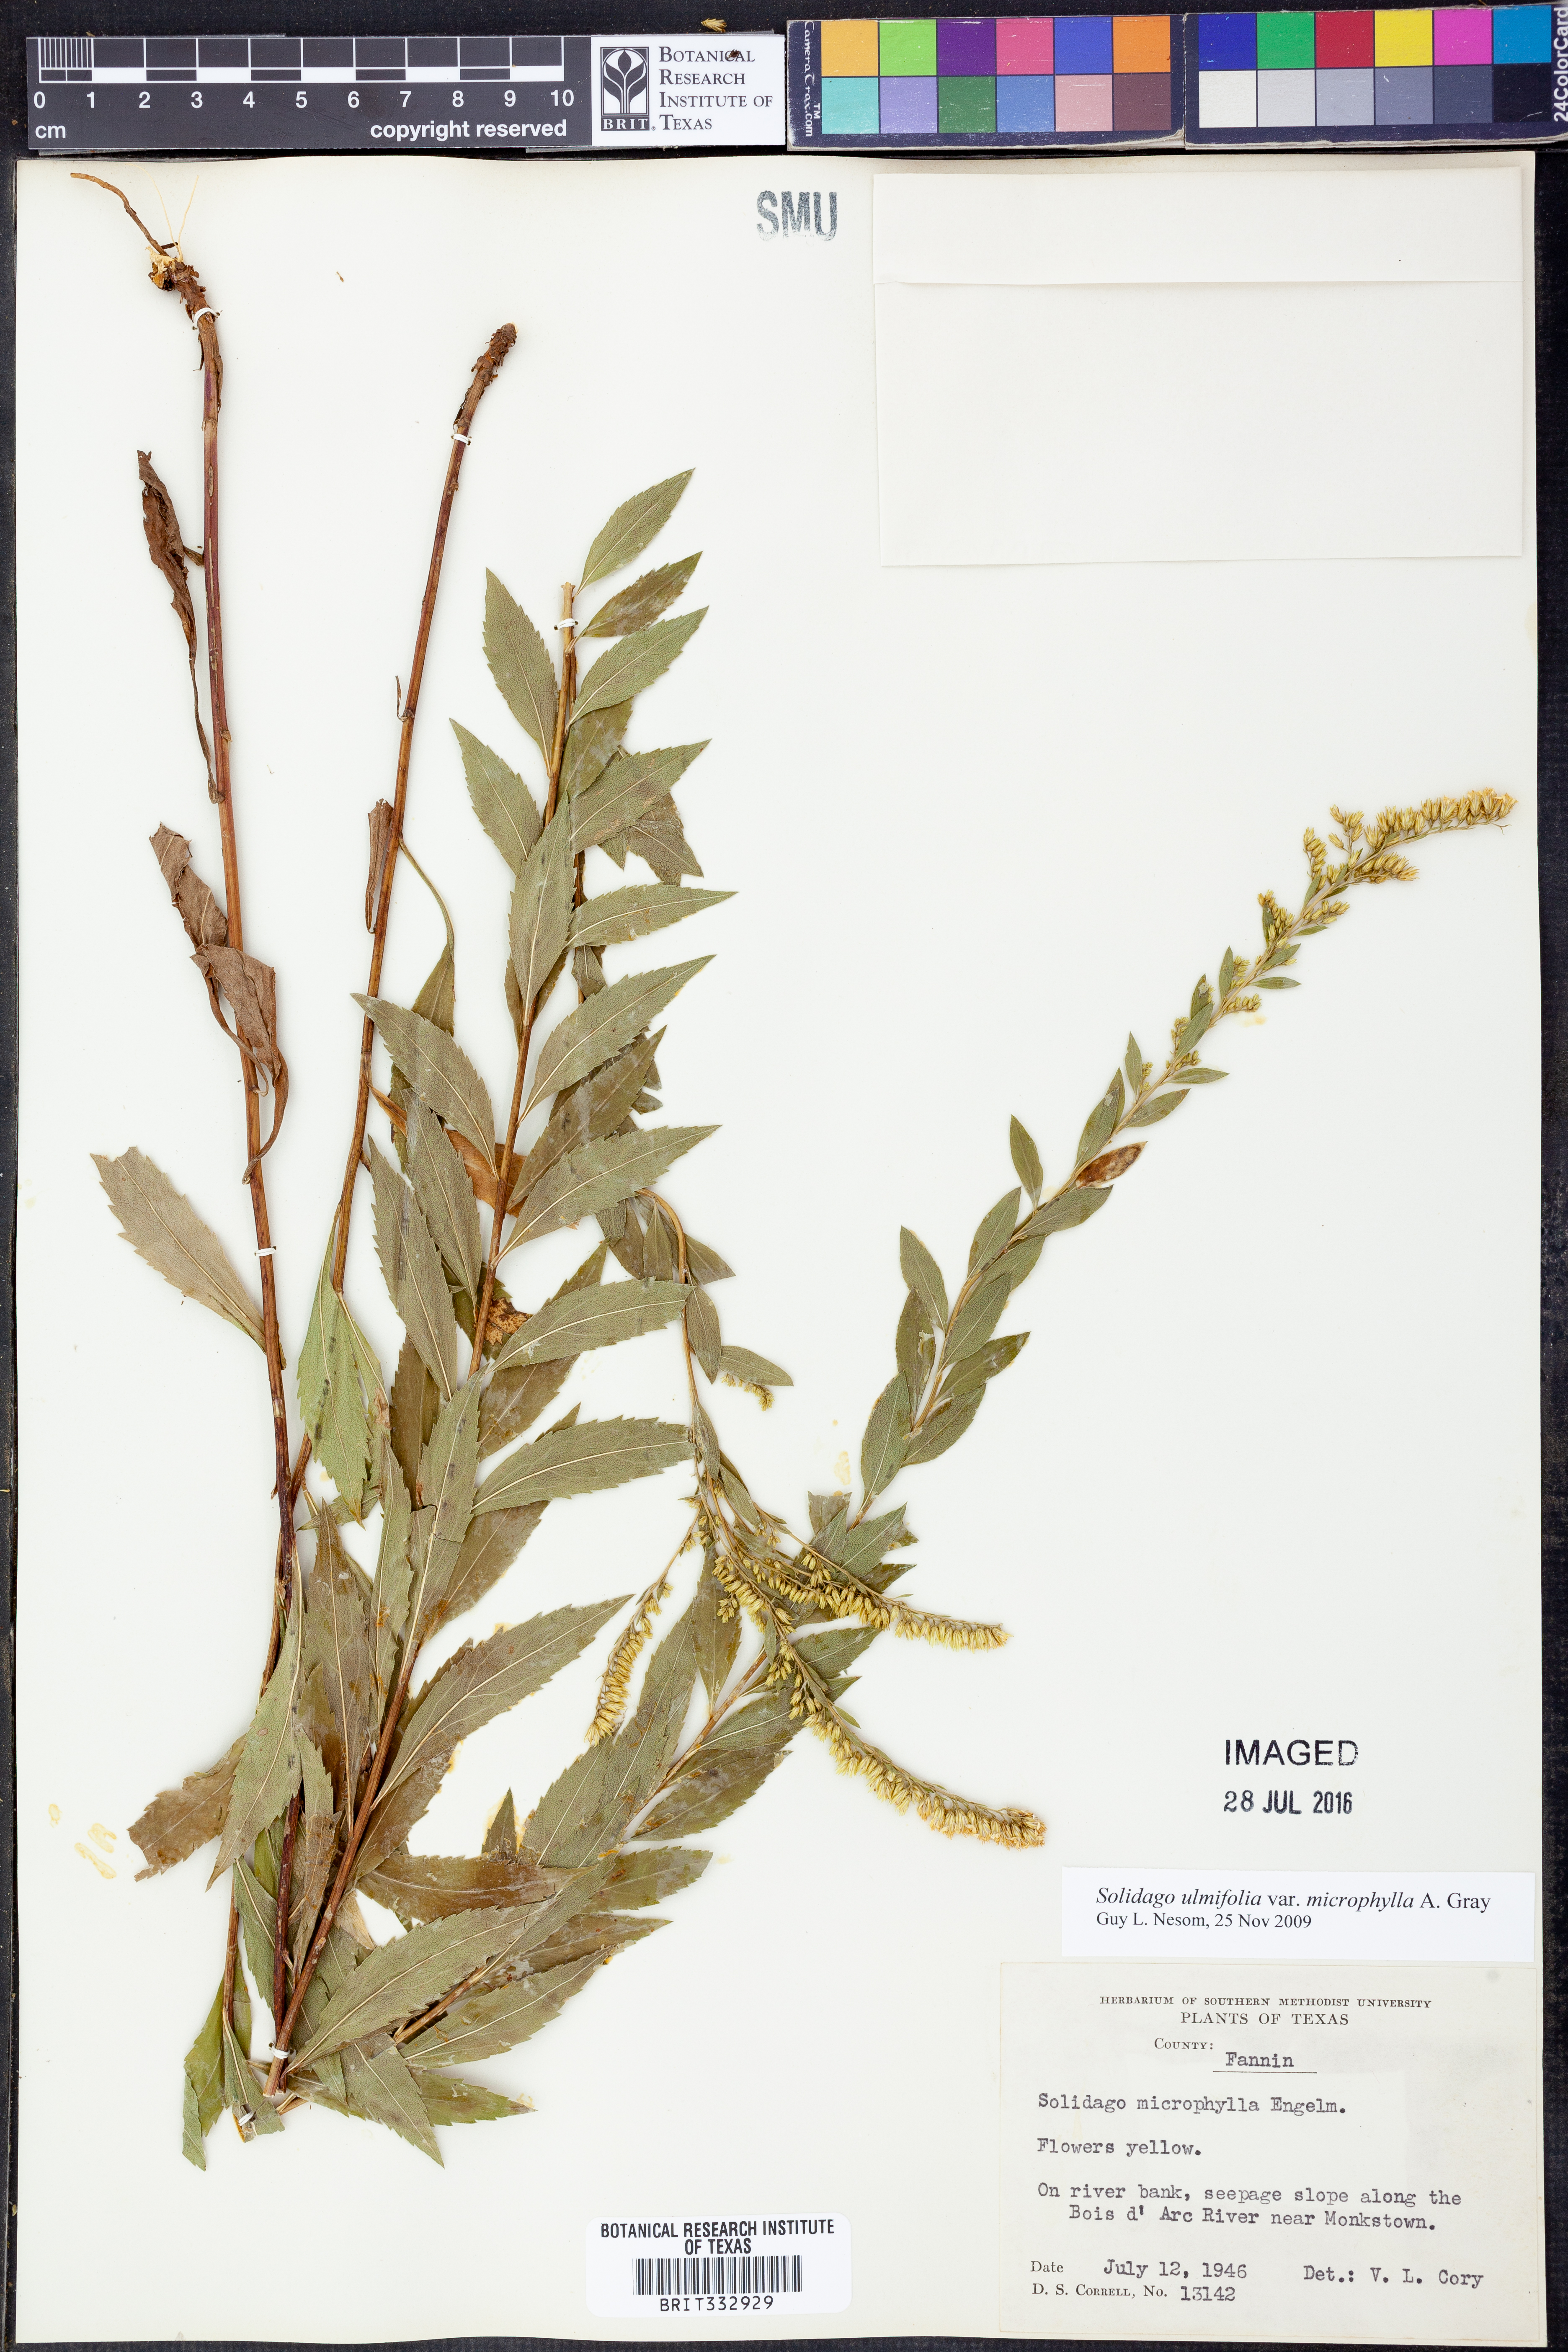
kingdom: Plantae
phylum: Tracheophyta
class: Magnoliopsida
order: Asterales
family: Asteraceae
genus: Solidago
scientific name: Solidago delicatula
